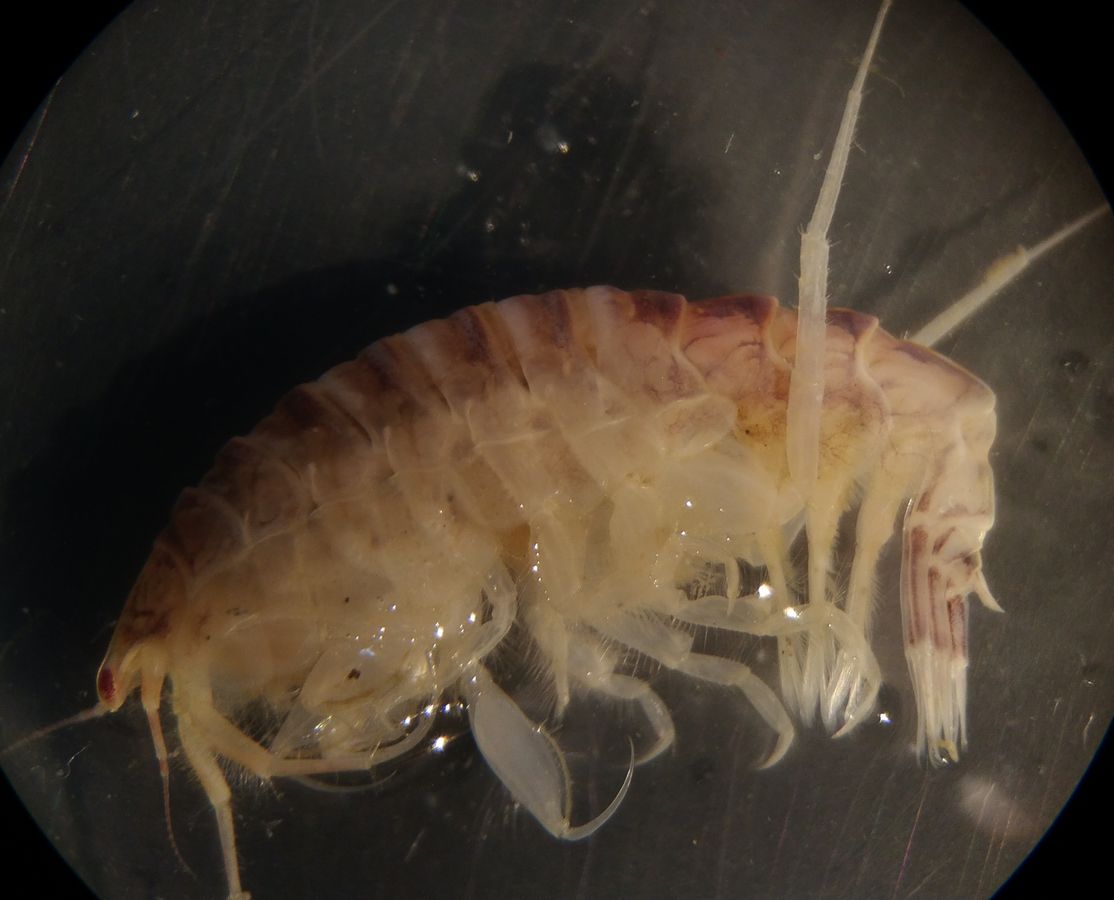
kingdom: Animalia
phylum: Arthropoda
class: Malacostraca
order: Amphipoda
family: Oedicerotidae
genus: Paroediceros
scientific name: Paroediceros lynceus
